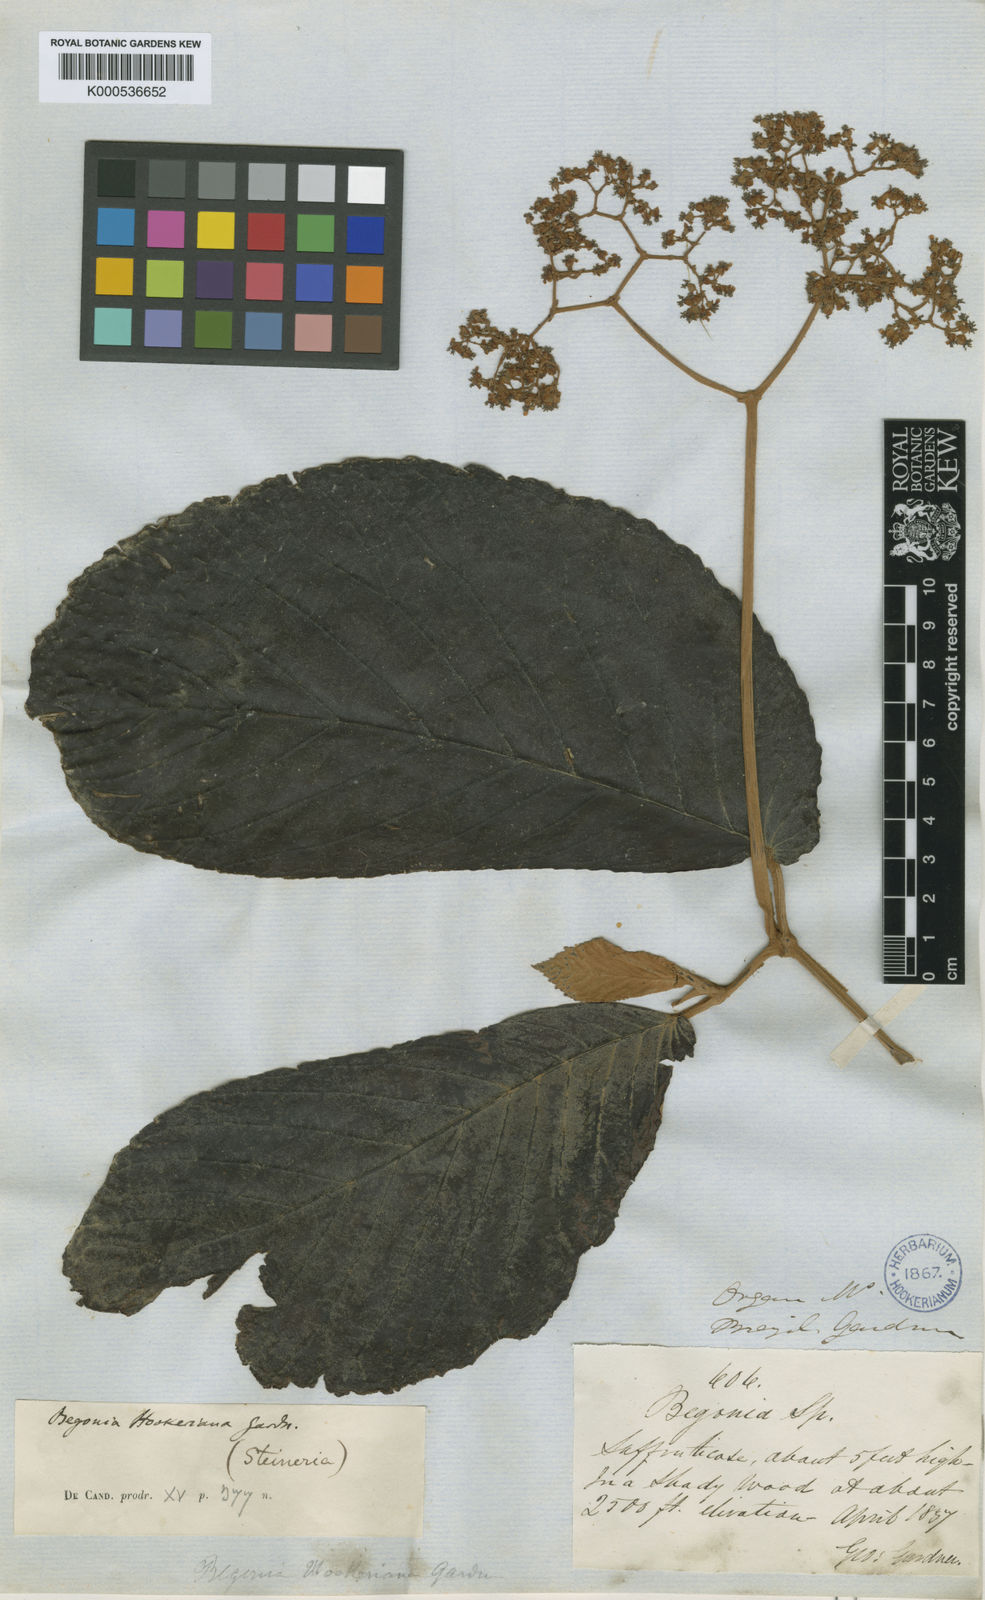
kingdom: Plantae
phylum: Tracheophyta
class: Magnoliopsida
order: Cucurbitales
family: Begoniaceae
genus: Begonia
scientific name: Begonia hookeriana
